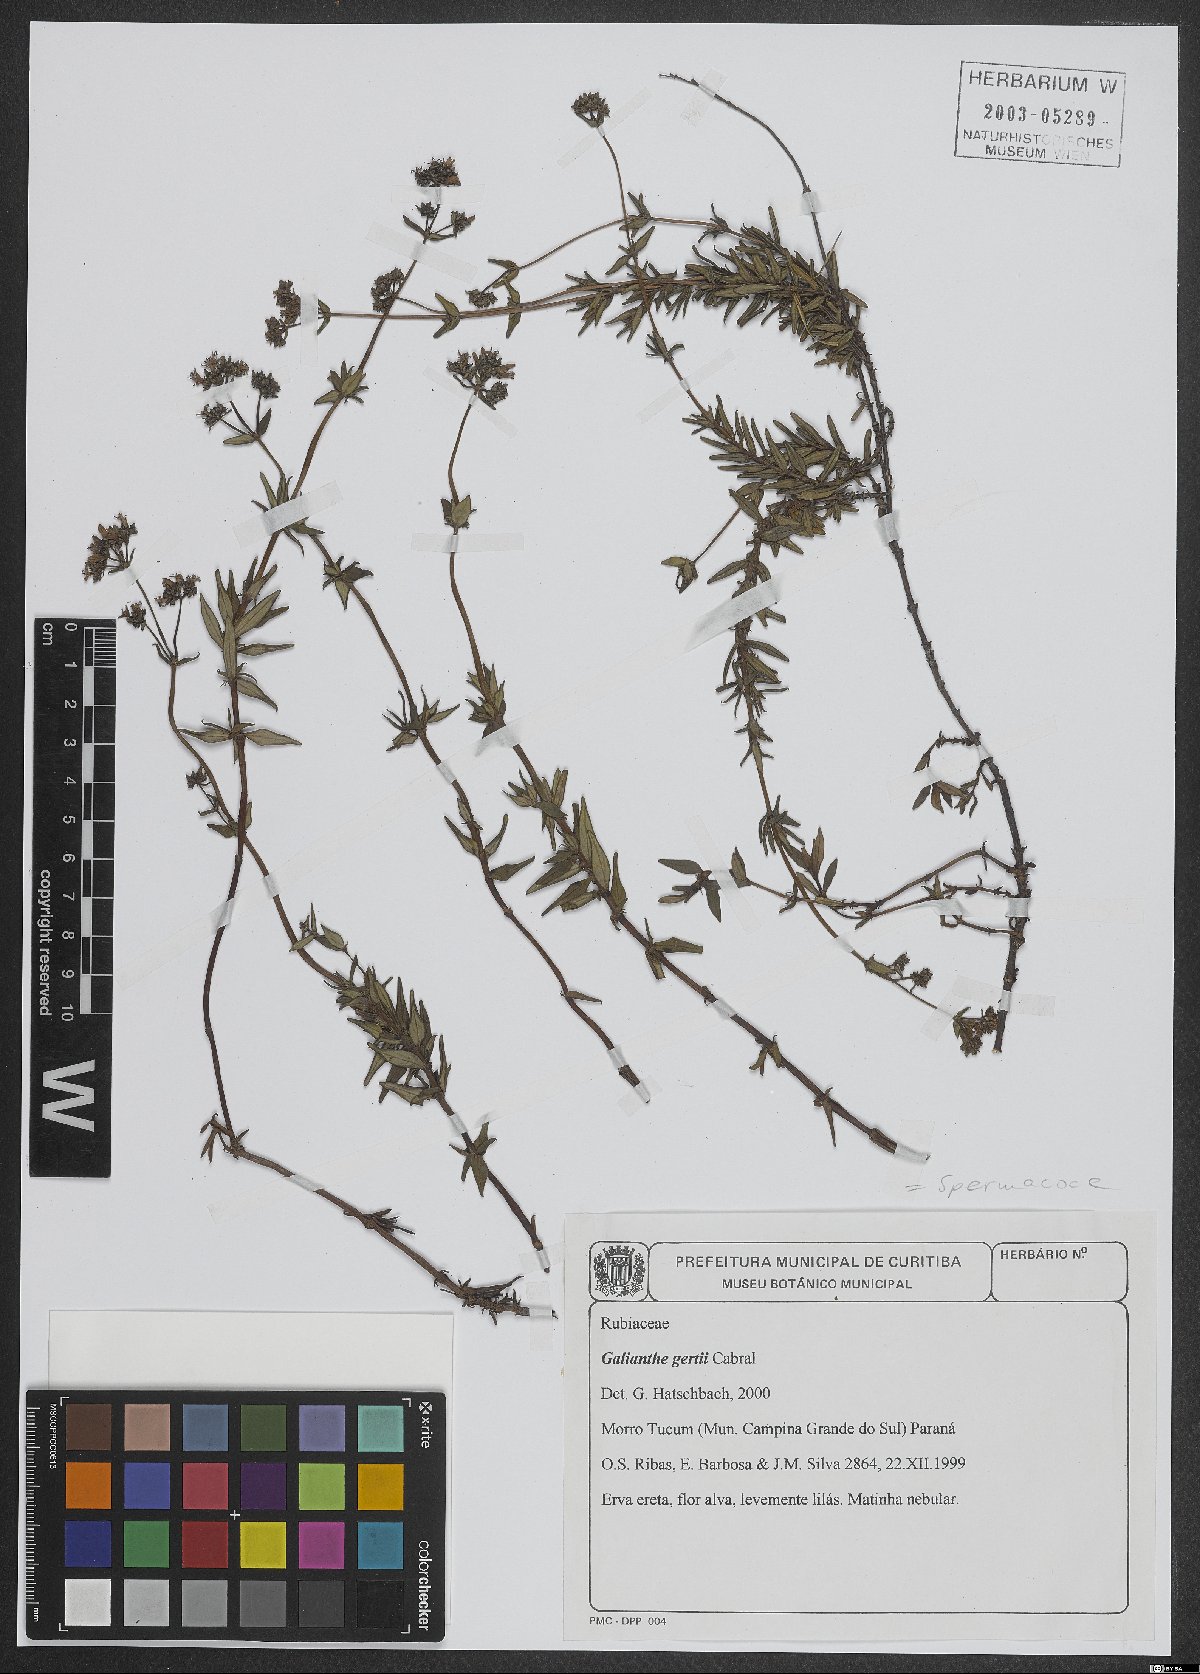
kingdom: Plantae
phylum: Tracheophyta
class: Magnoliopsida
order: Gentianales
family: Rubiaceae
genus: Galianthe
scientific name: Galianthe gertii
